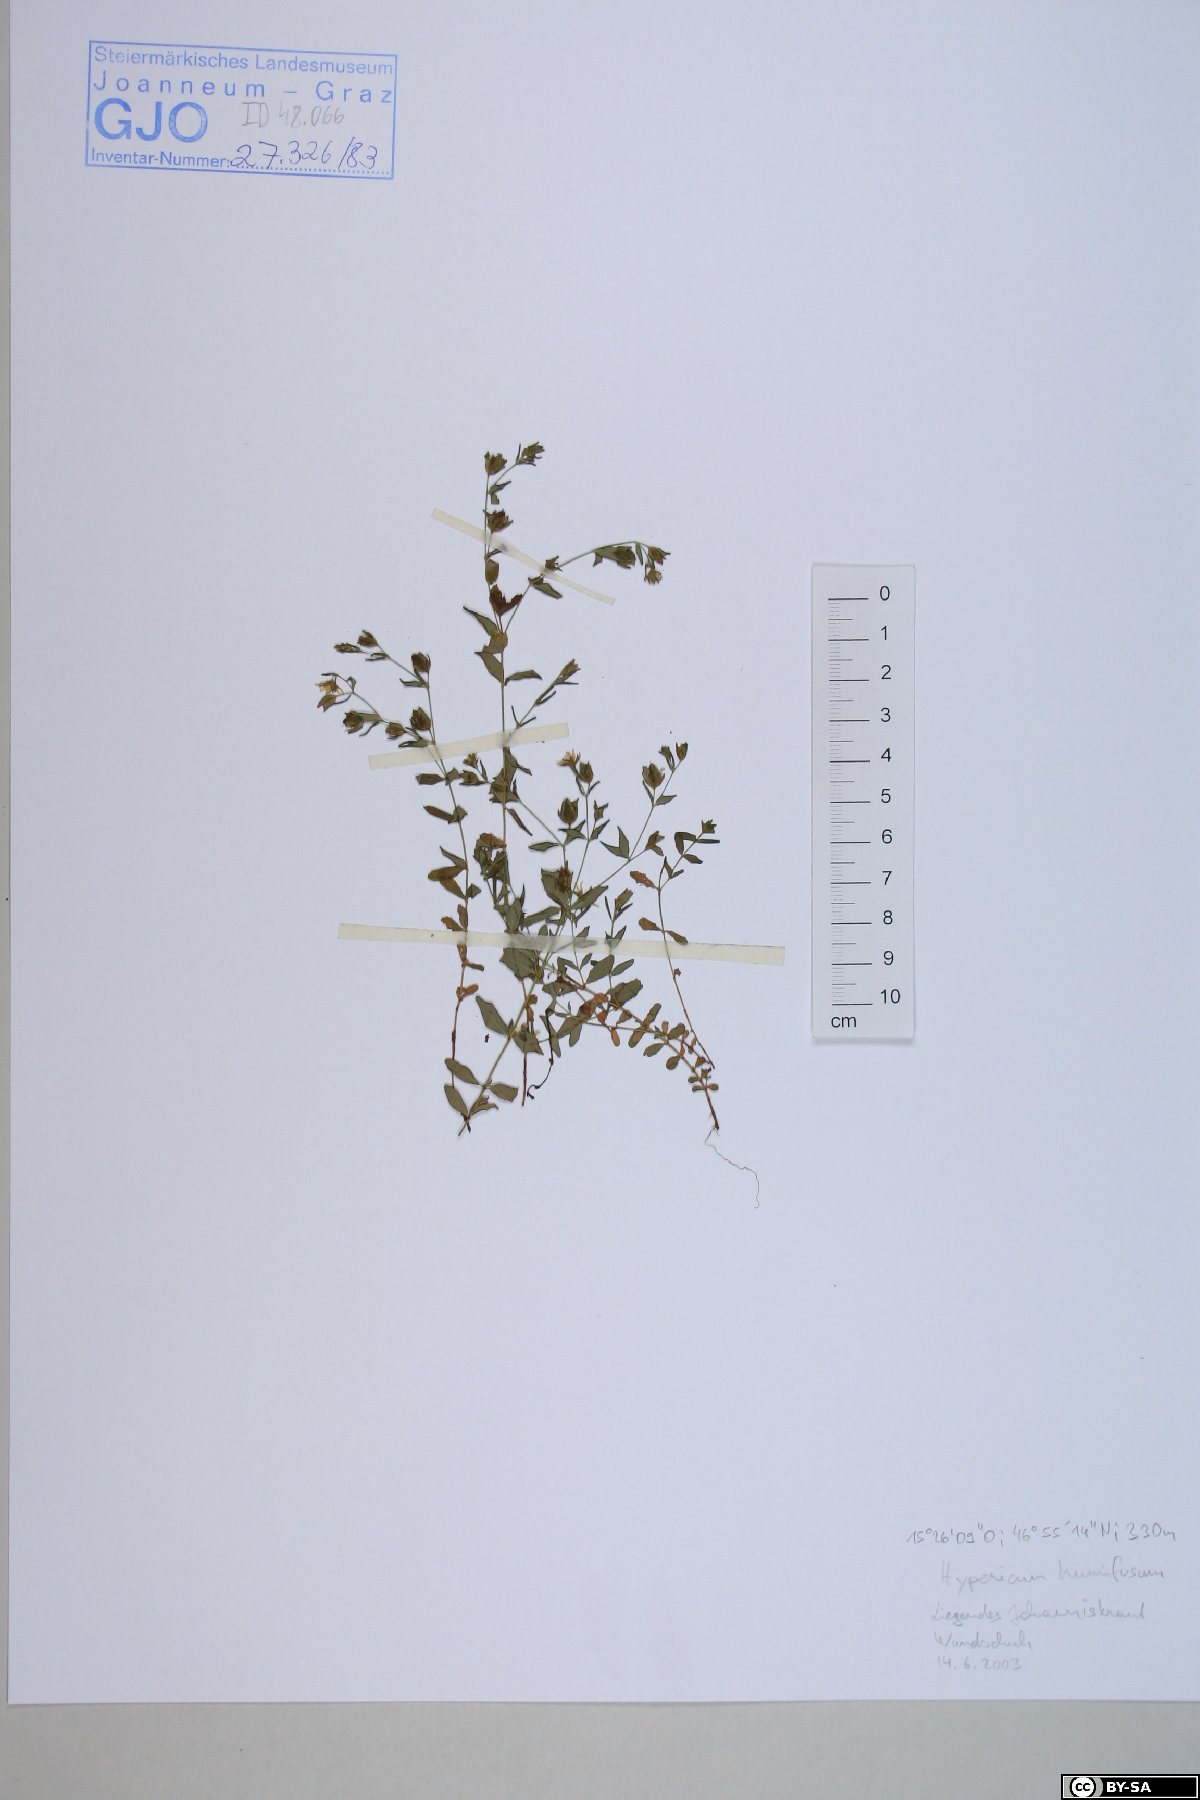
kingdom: Plantae
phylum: Tracheophyta
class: Magnoliopsida
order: Malpighiales
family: Hypericaceae
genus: Hypericum
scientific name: Hypericum humifusum
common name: Trailing st. john's-wort
